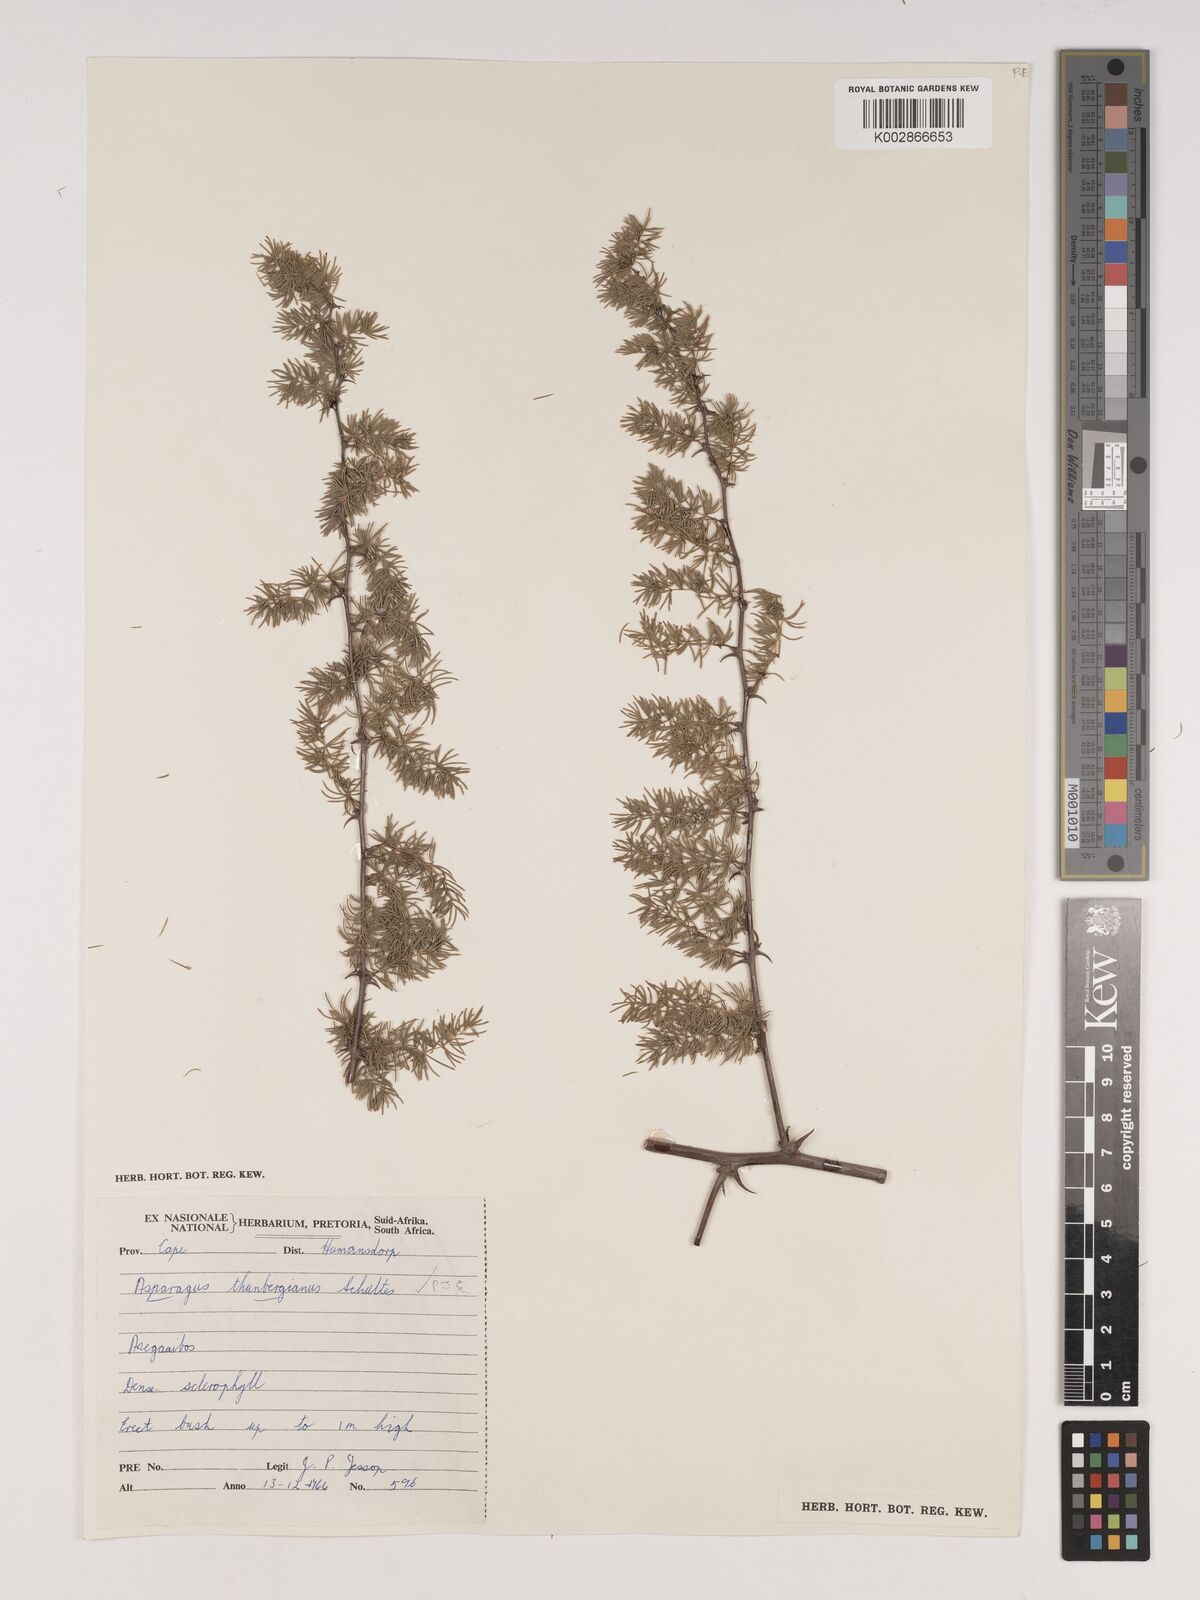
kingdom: Plantae
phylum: Tracheophyta
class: Liliopsida
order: Asparagales
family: Asparagaceae
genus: Asparagus
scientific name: Asparagus rubicundus
